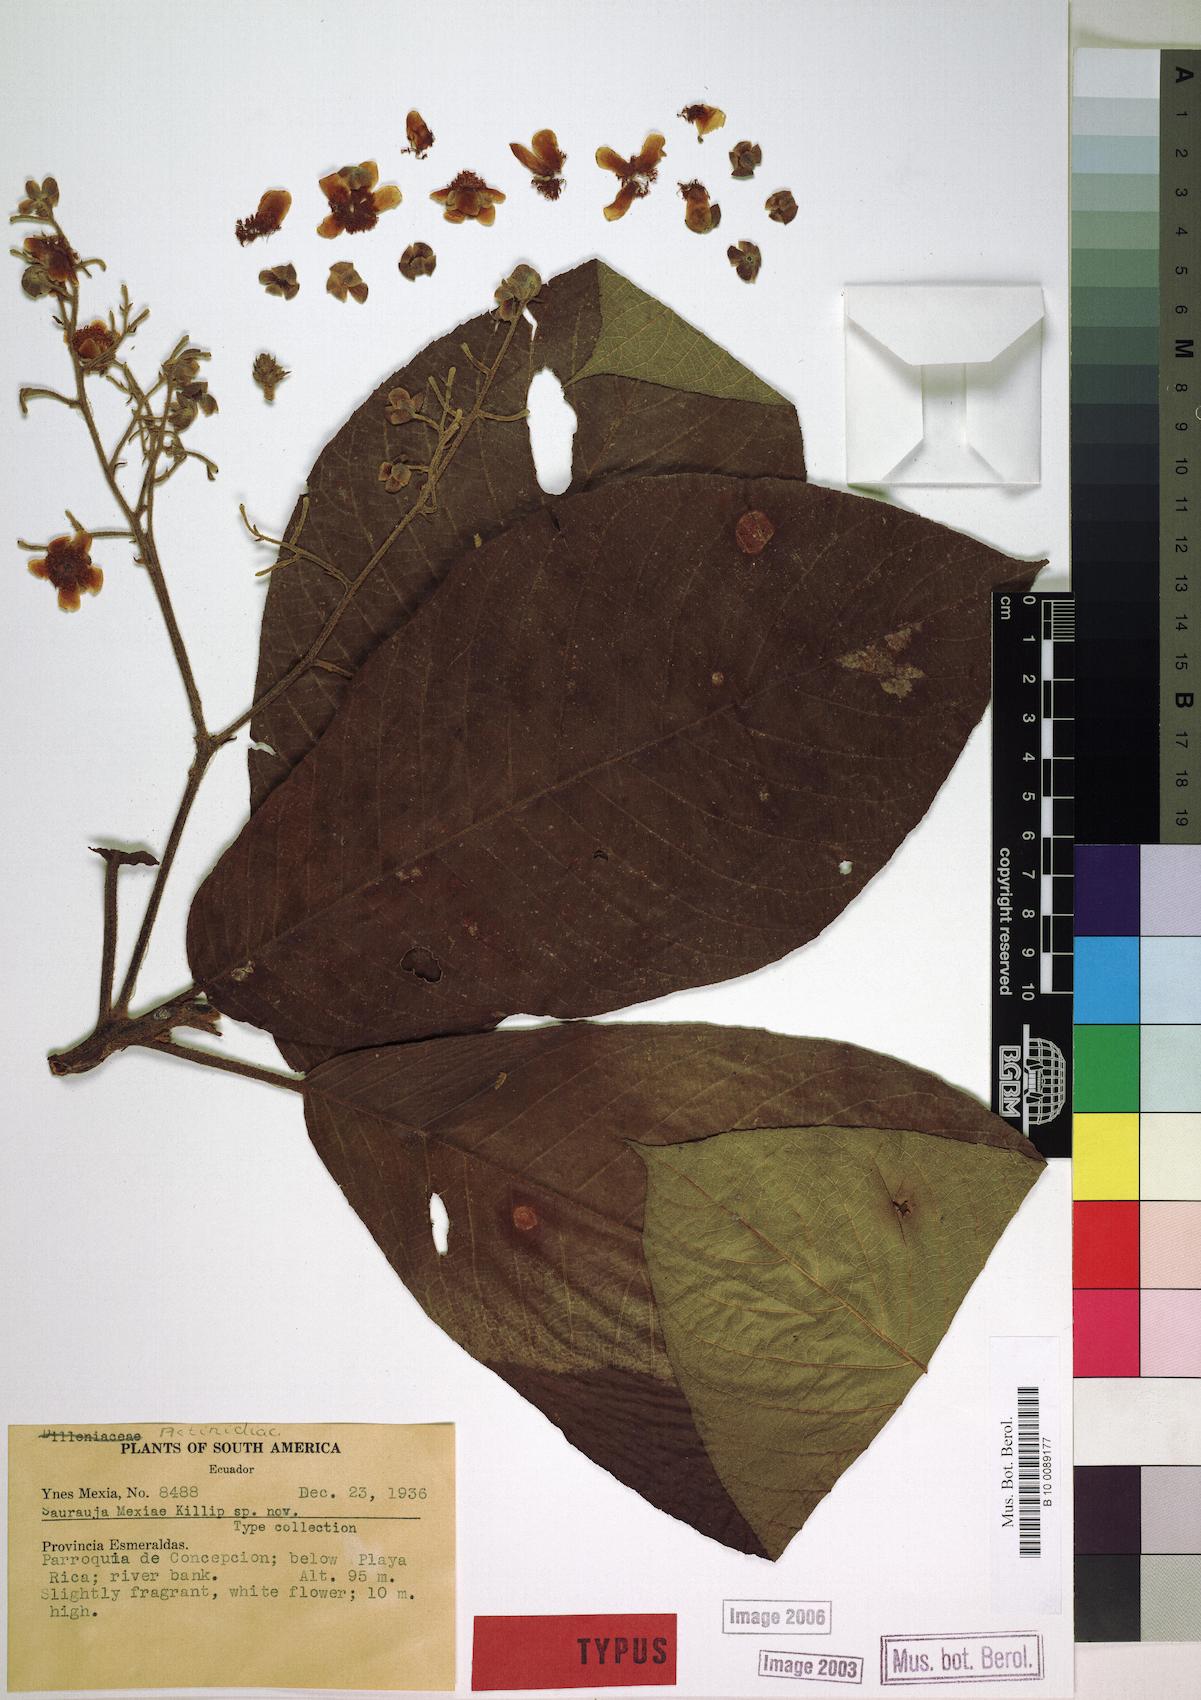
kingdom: Plantae
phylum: Tracheophyta
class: Magnoliopsida
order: Ericales
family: Actinidiaceae
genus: Saurauia
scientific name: Saurauia mexiae
